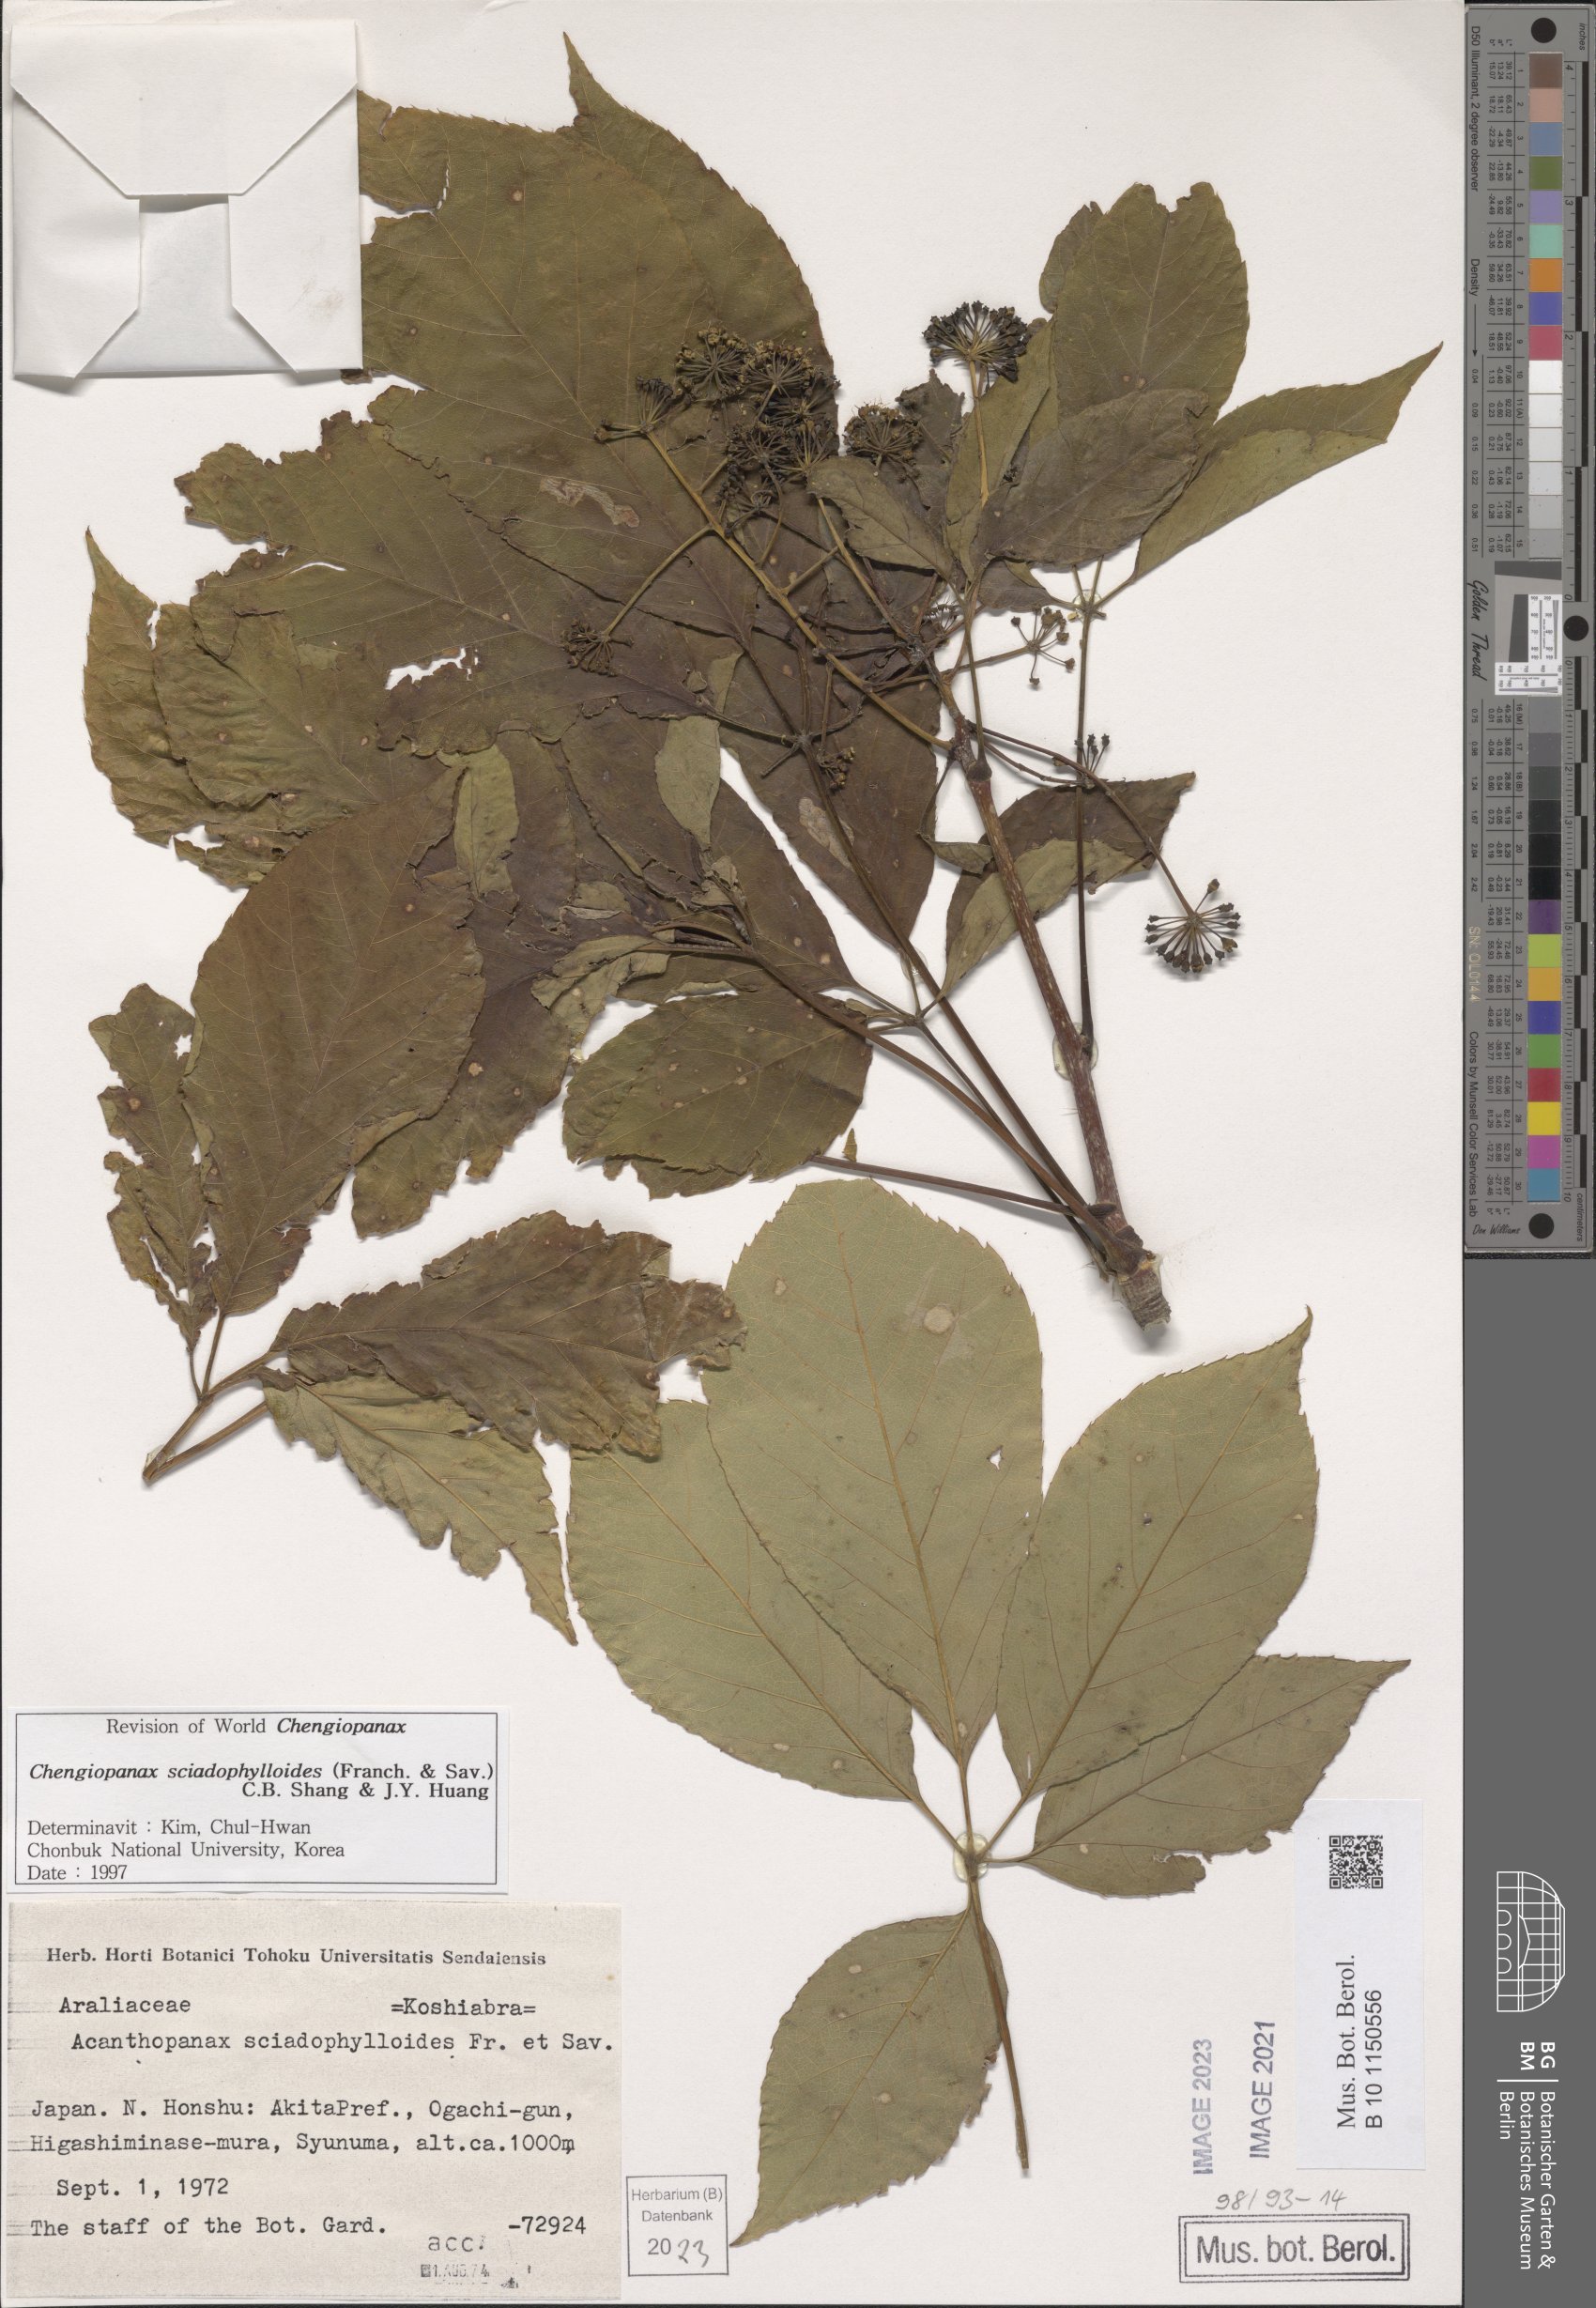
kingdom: Plantae
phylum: Tracheophyta
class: Magnoliopsida
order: Apiales
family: Araliaceae
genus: Chengiopanax
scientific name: Chengiopanax sciadophylloides
